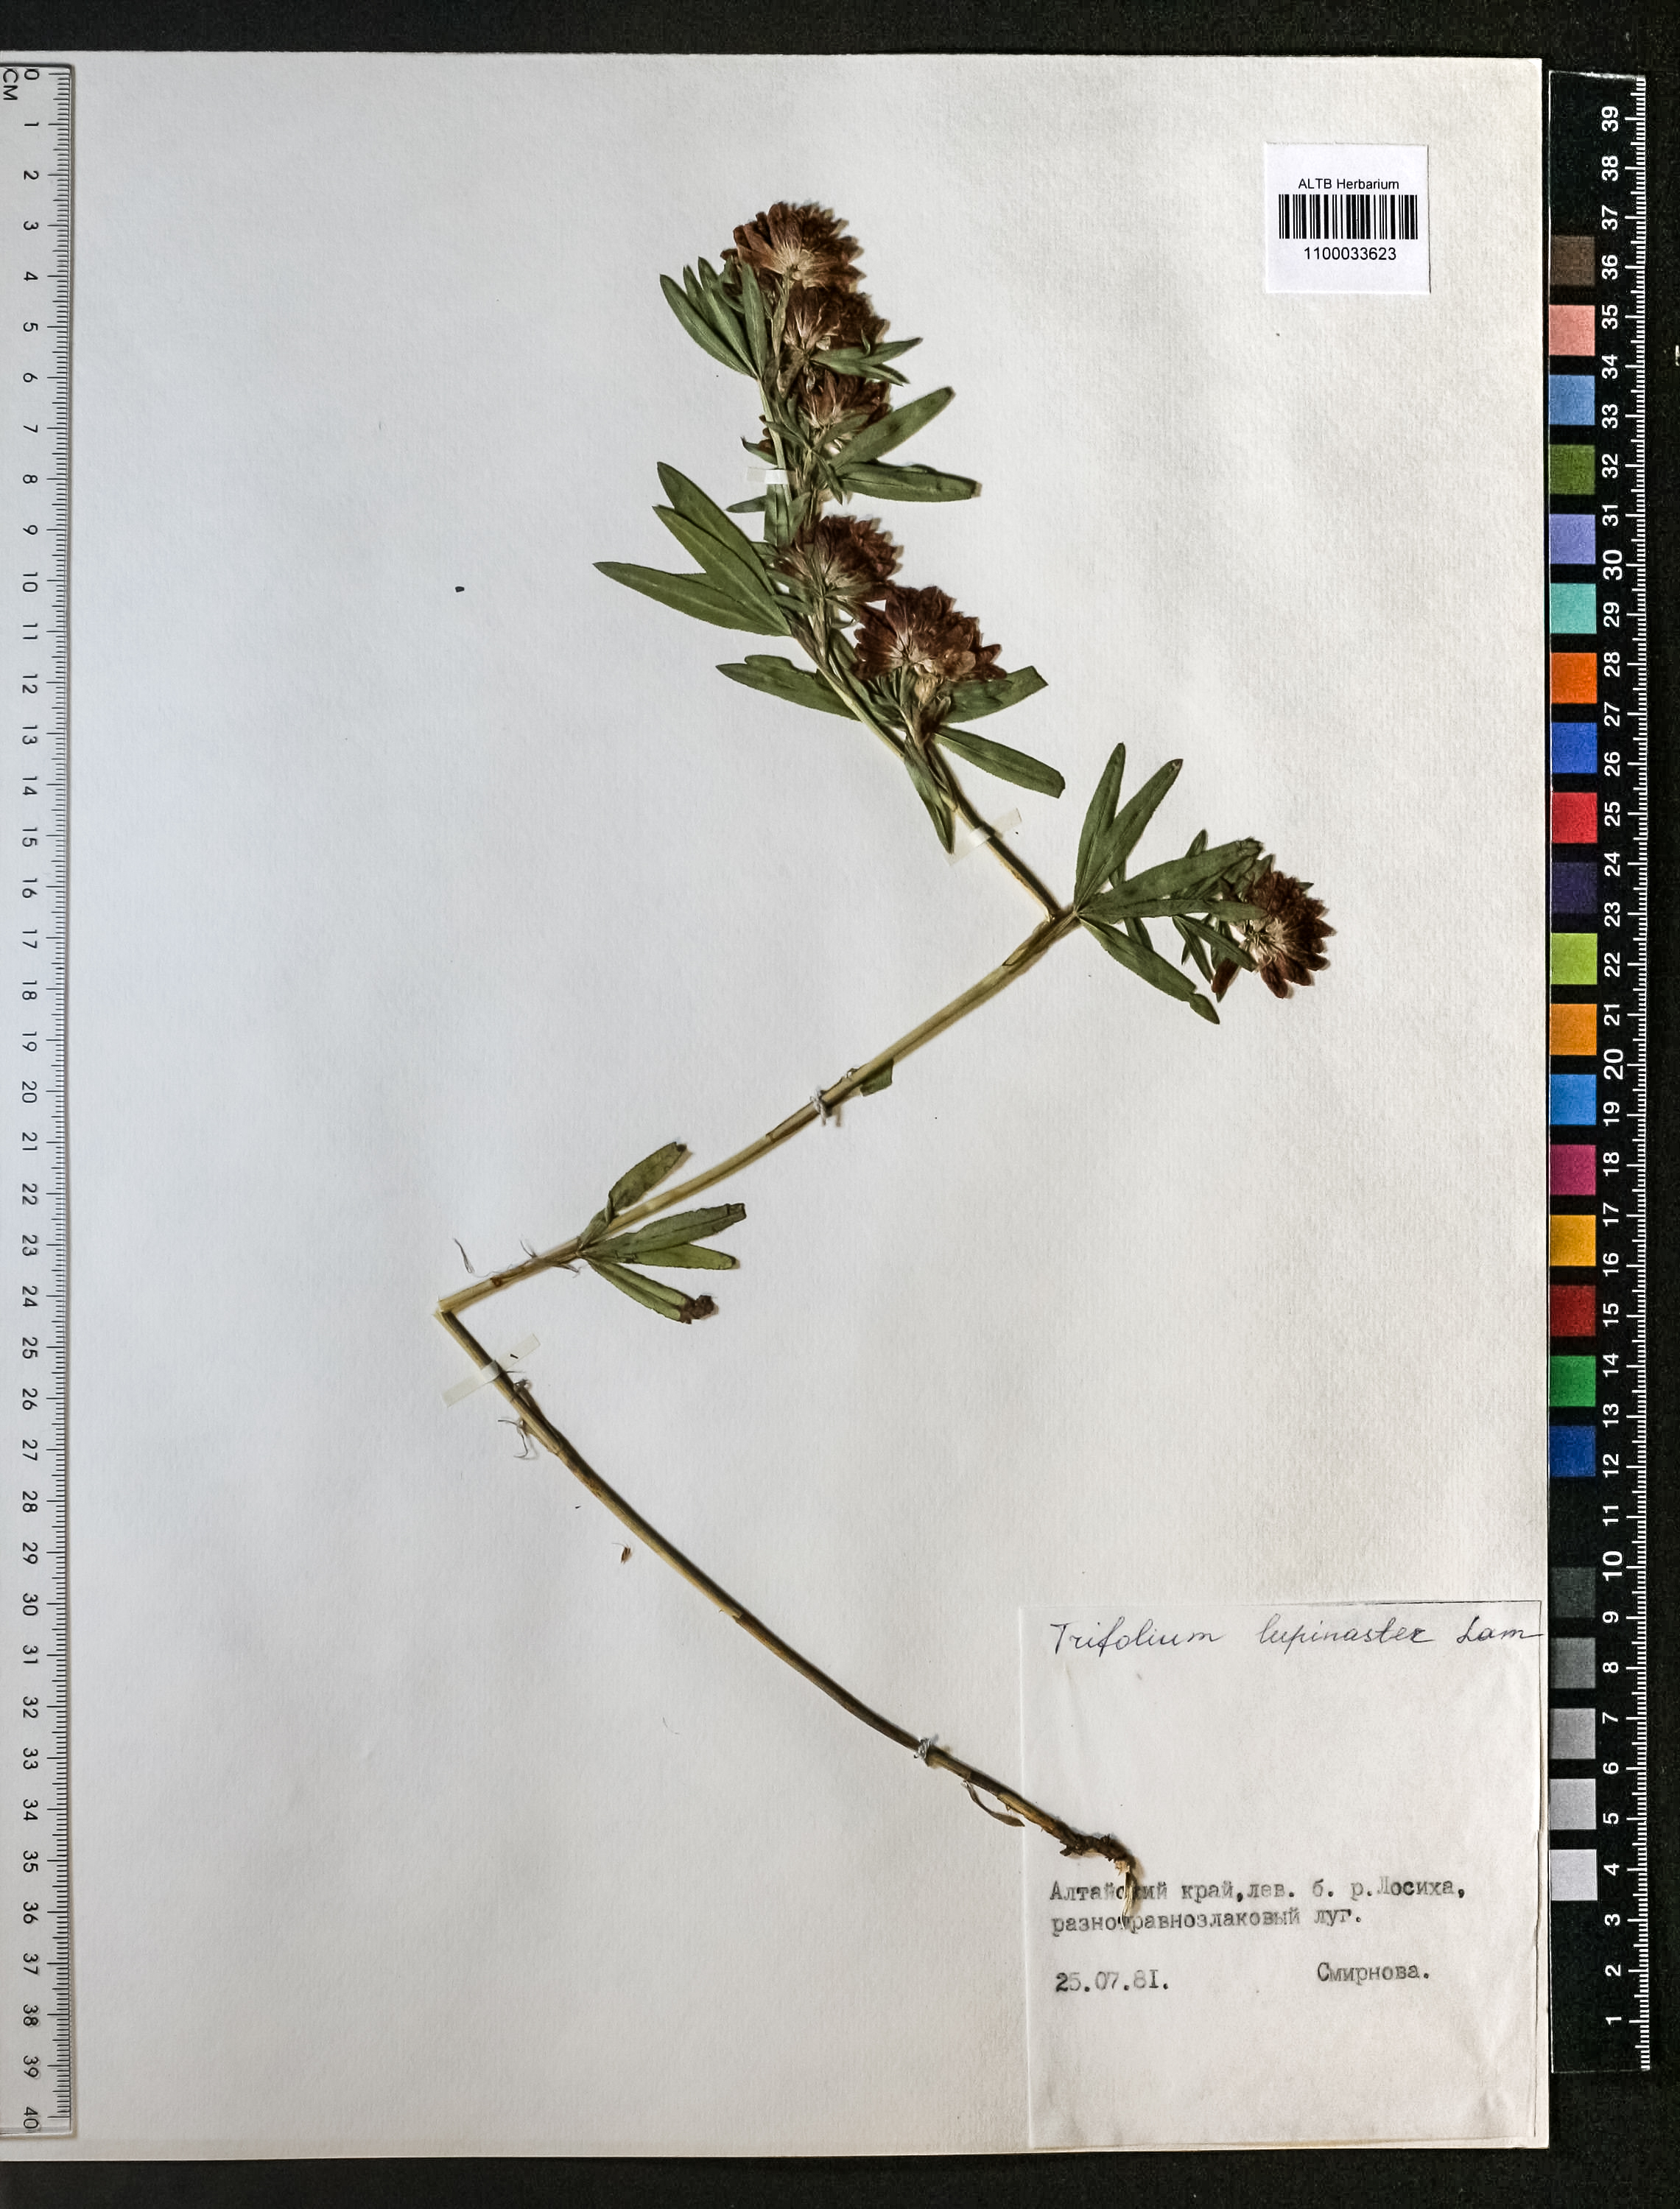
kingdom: Plantae
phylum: Tracheophyta
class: Magnoliopsida
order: Fabales
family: Fabaceae
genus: Trifolium
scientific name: Trifolium lupinaster
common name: Lupine clover
